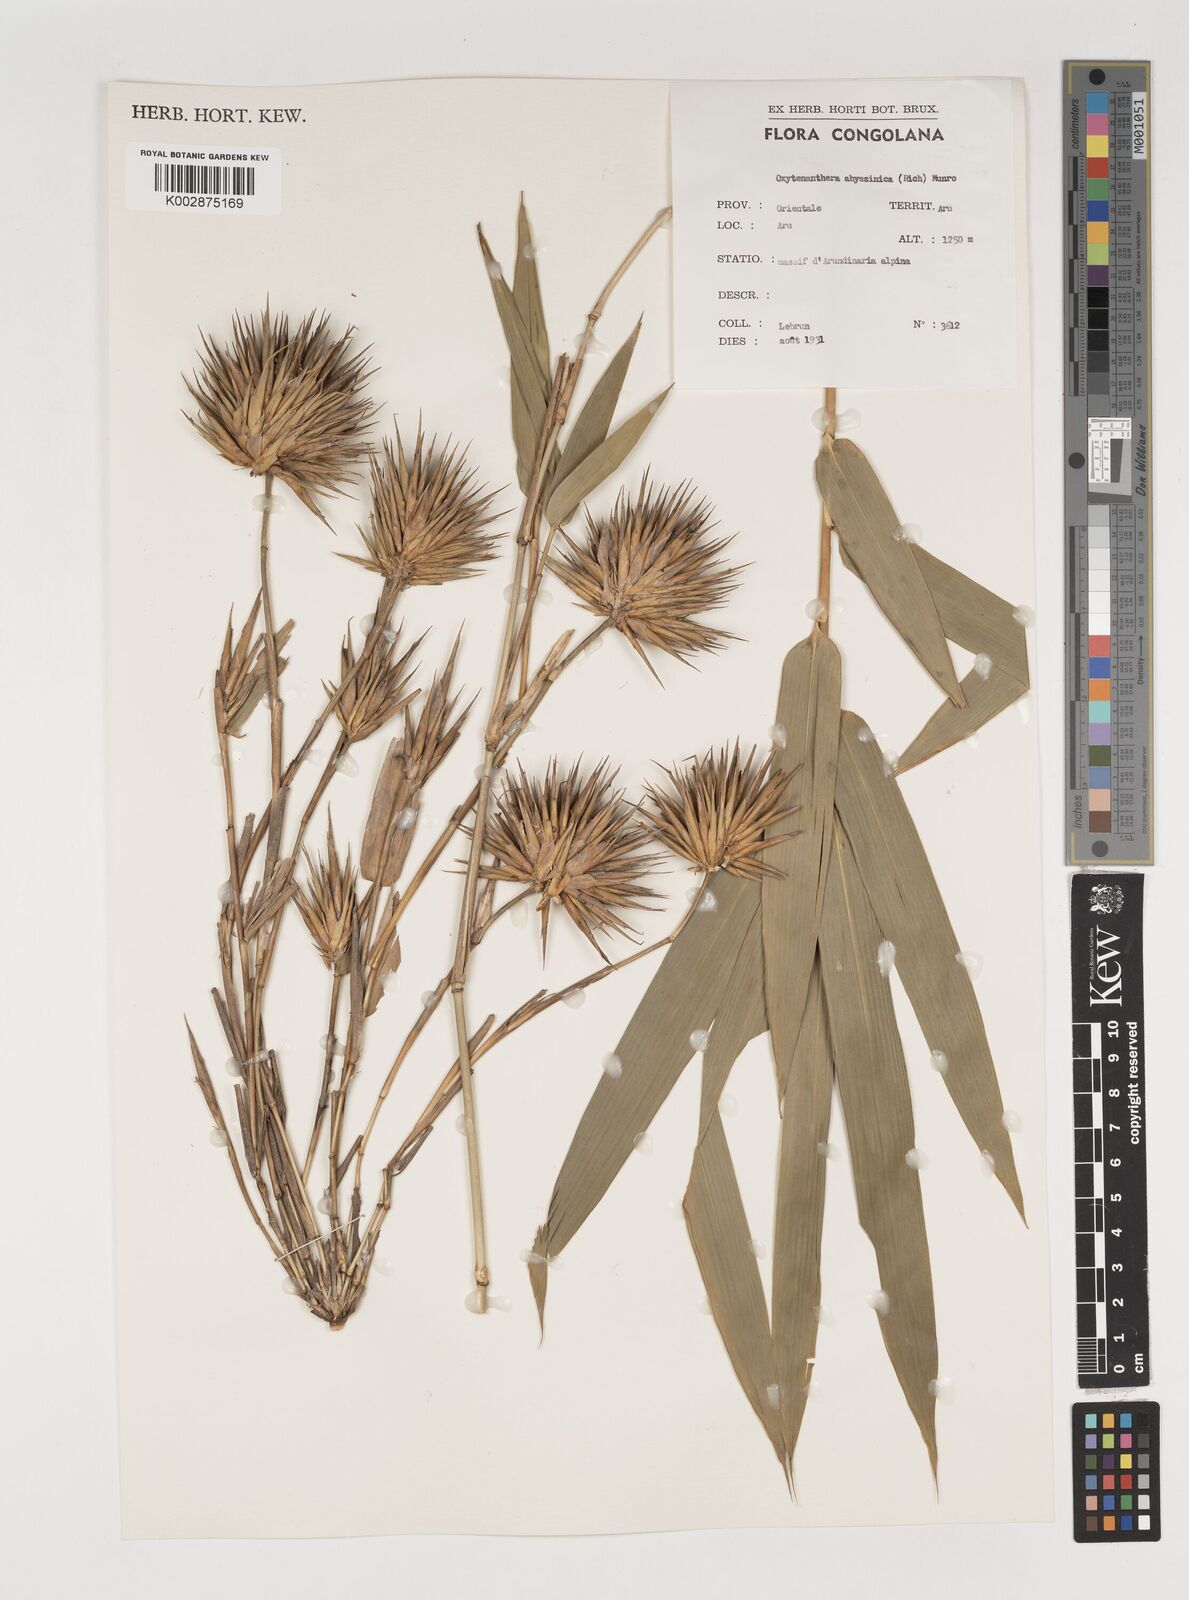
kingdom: Plantae
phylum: Tracheophyta
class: Liliopsida
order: Poales
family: Poaceae
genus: Oxytenanthera
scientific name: Oxytenanthera abyssinica
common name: Wine bamboo
